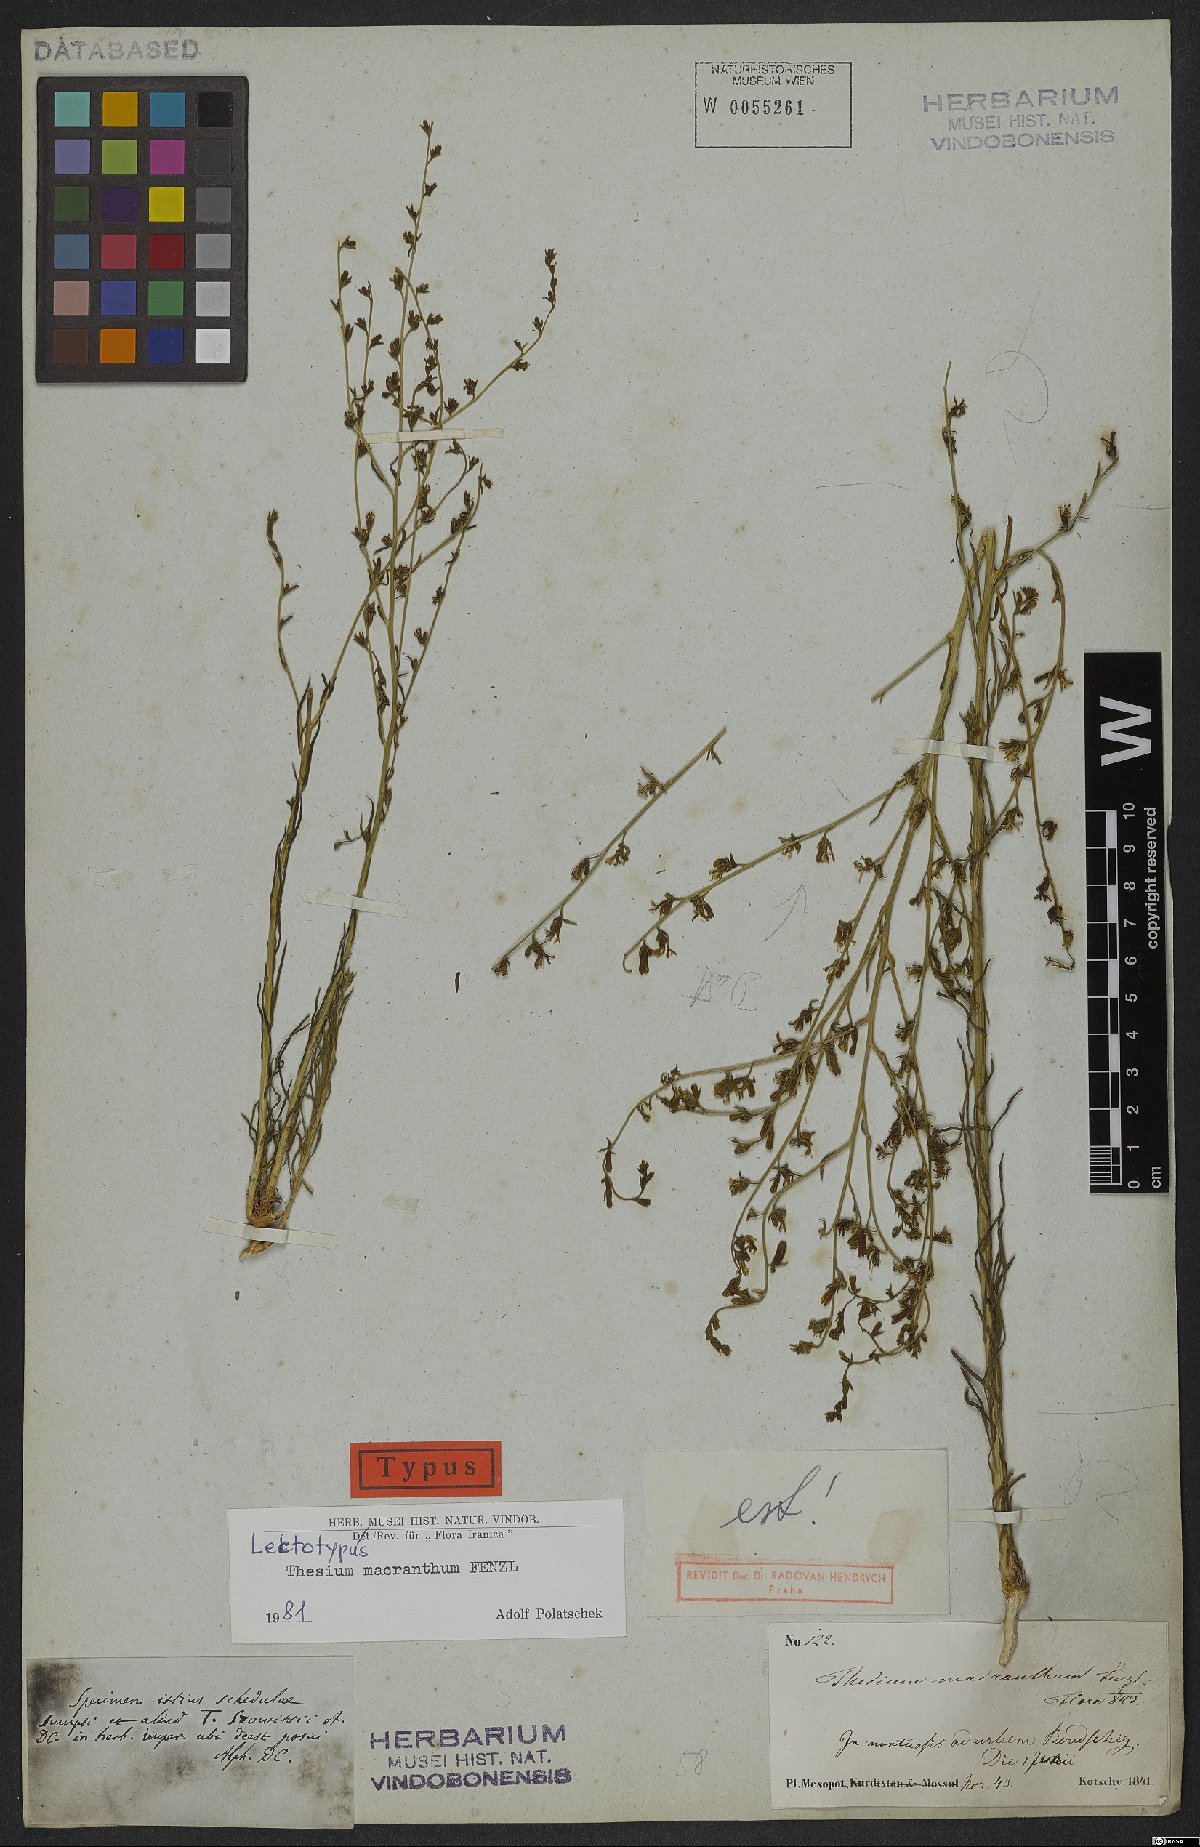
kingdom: Plantae
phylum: Tracheophyta
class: Magnoliopsida
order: Santalales
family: Thesiaceae
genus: Thesium
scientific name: Thesium macranthum
